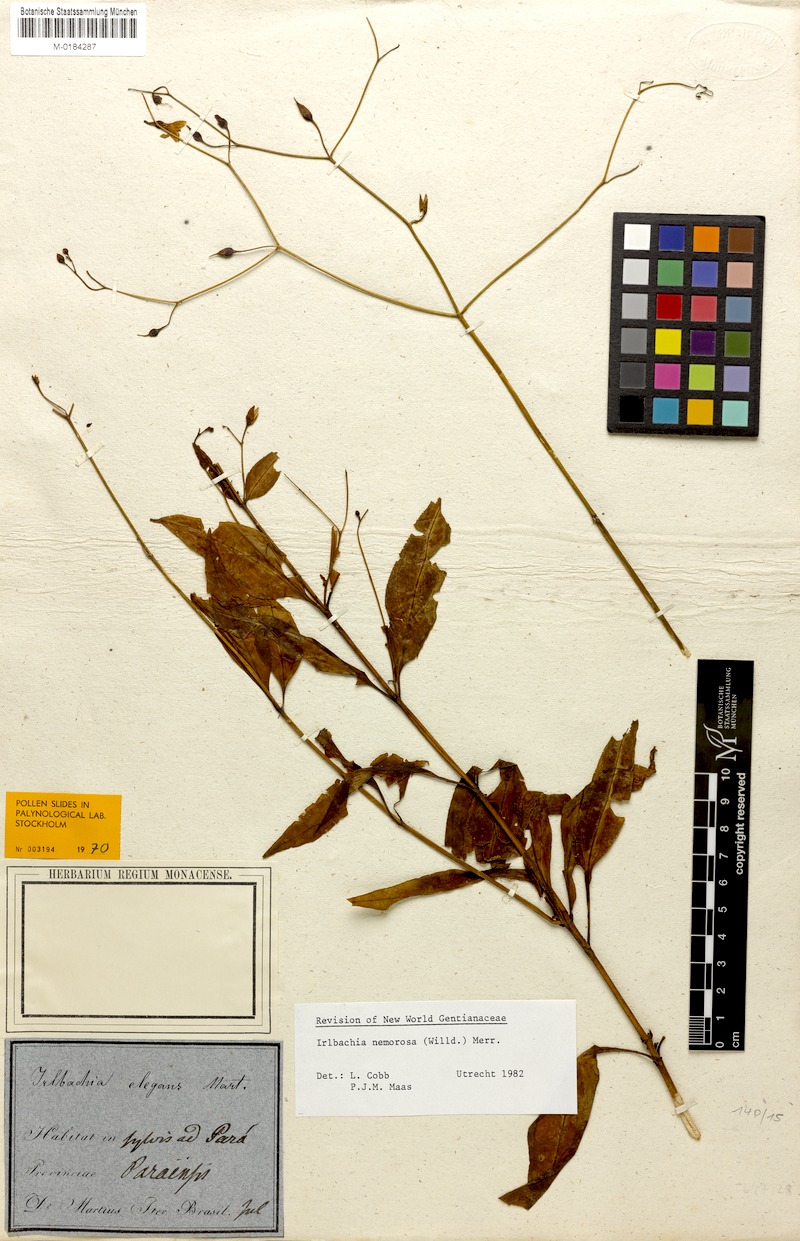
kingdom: Plantae
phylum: Tracheophyta
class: Magnoliopsida
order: Gentianales
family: Gentianaceae
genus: Irlbachia
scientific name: Irlbachia nemorosa
